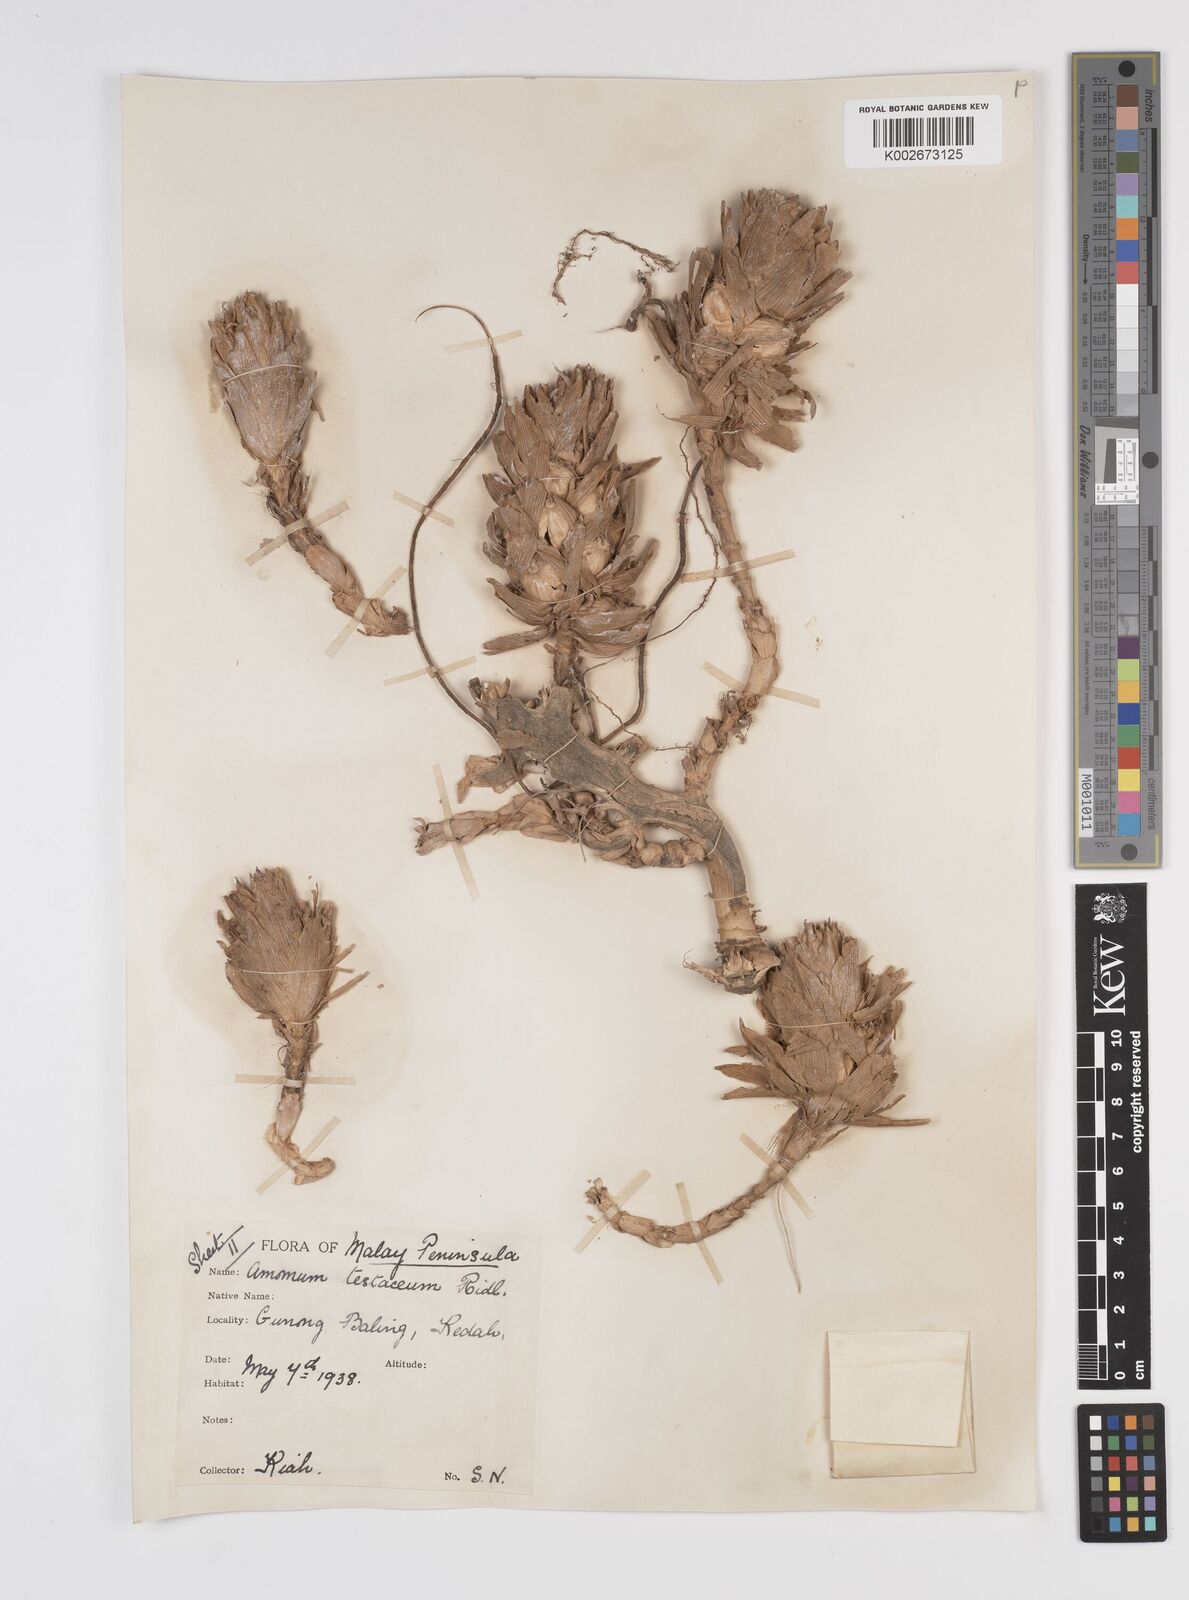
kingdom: Plantae
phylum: Tracheophyta
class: Liliopsida
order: Zingiberales
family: Zingiberaceae
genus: Wurfbainia
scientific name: Wurfbainia testacea
